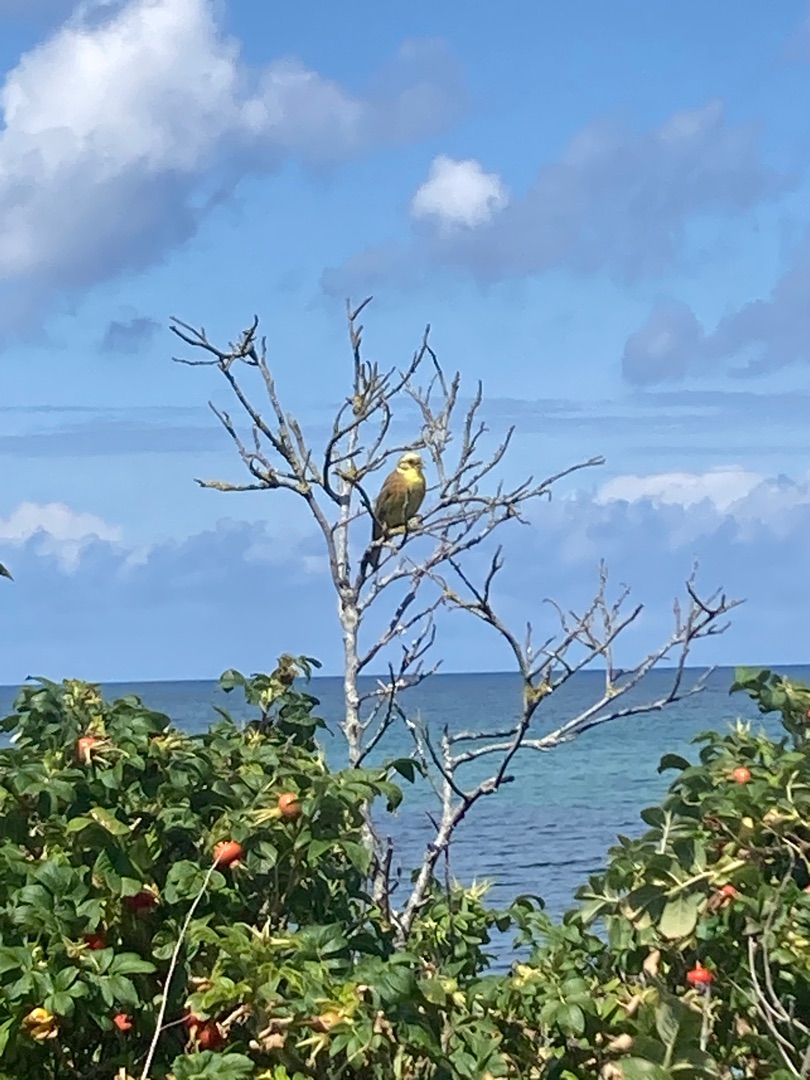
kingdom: Animalia
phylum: Chordata
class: Aves
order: Passeriformes
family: Emberizidae
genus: Emberiza
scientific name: Emberiza citrinella
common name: Gulspurv
